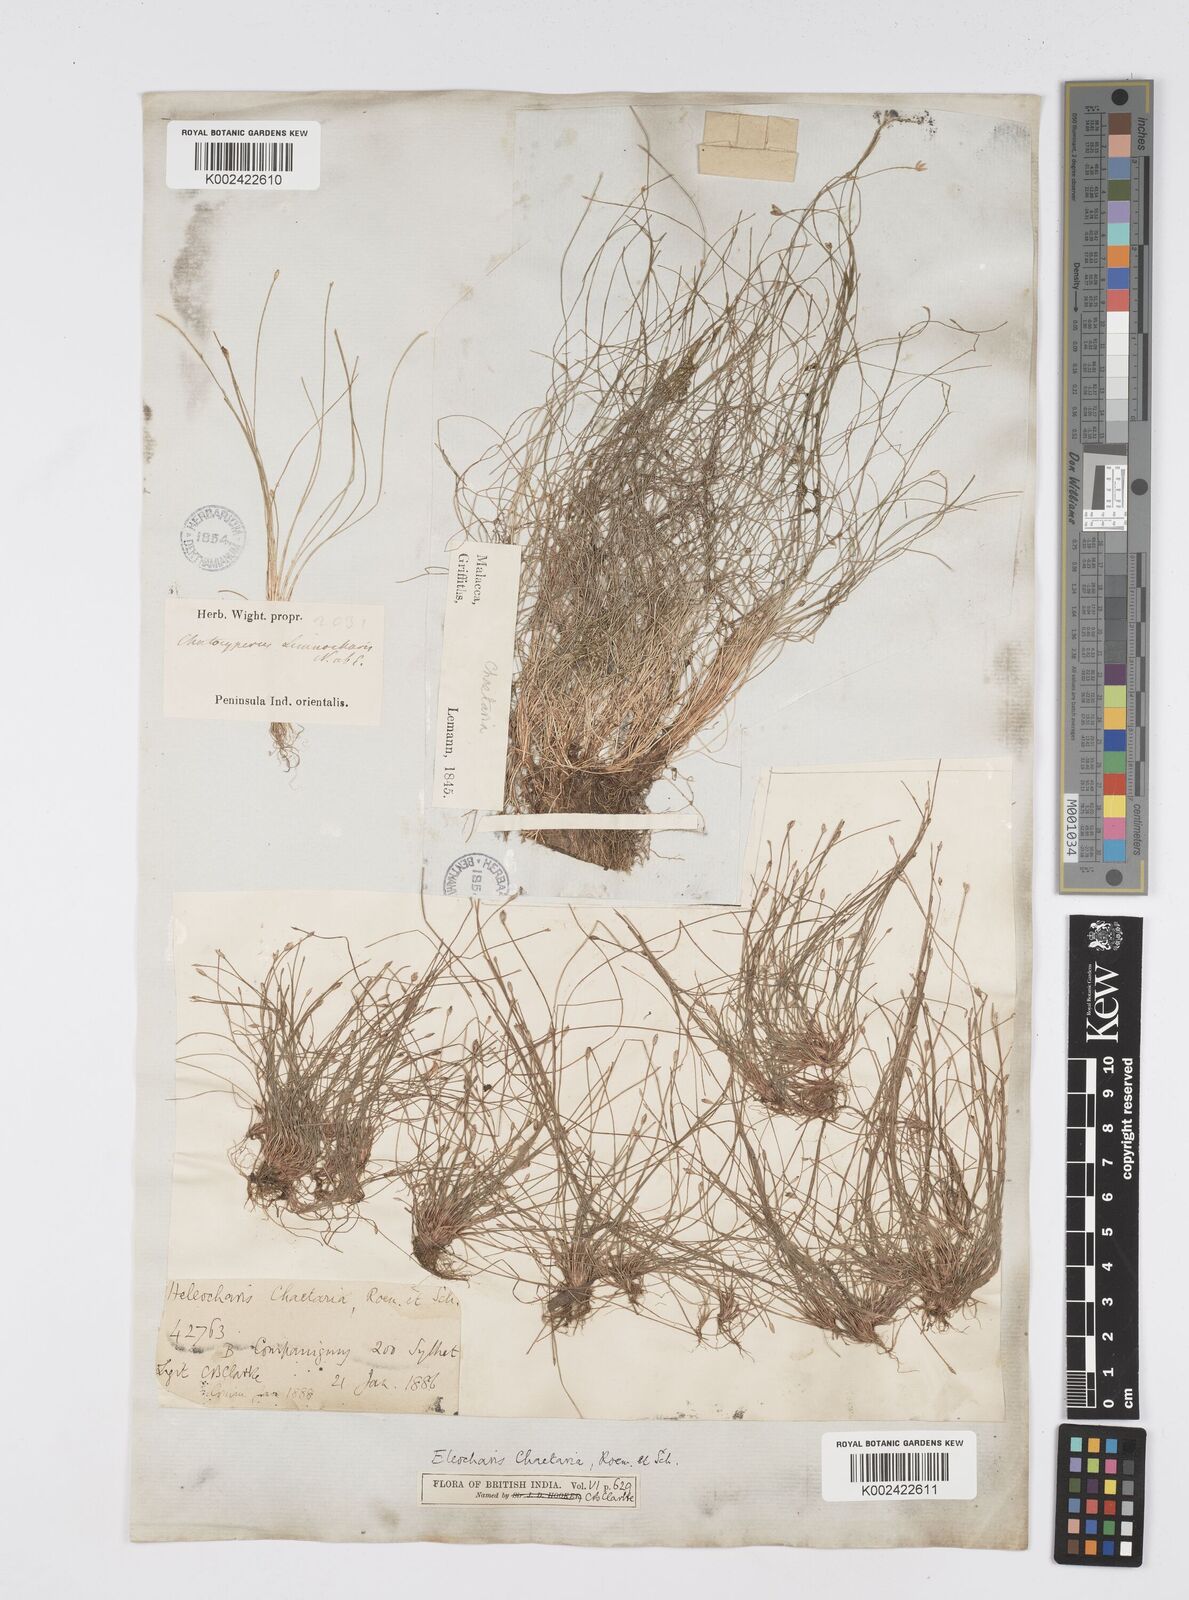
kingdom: Plantae
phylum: Tracheophyta
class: Liliopsida
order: Poales
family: Cyperaceae
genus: Eleocharis
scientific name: Eleocharis retroflexa
